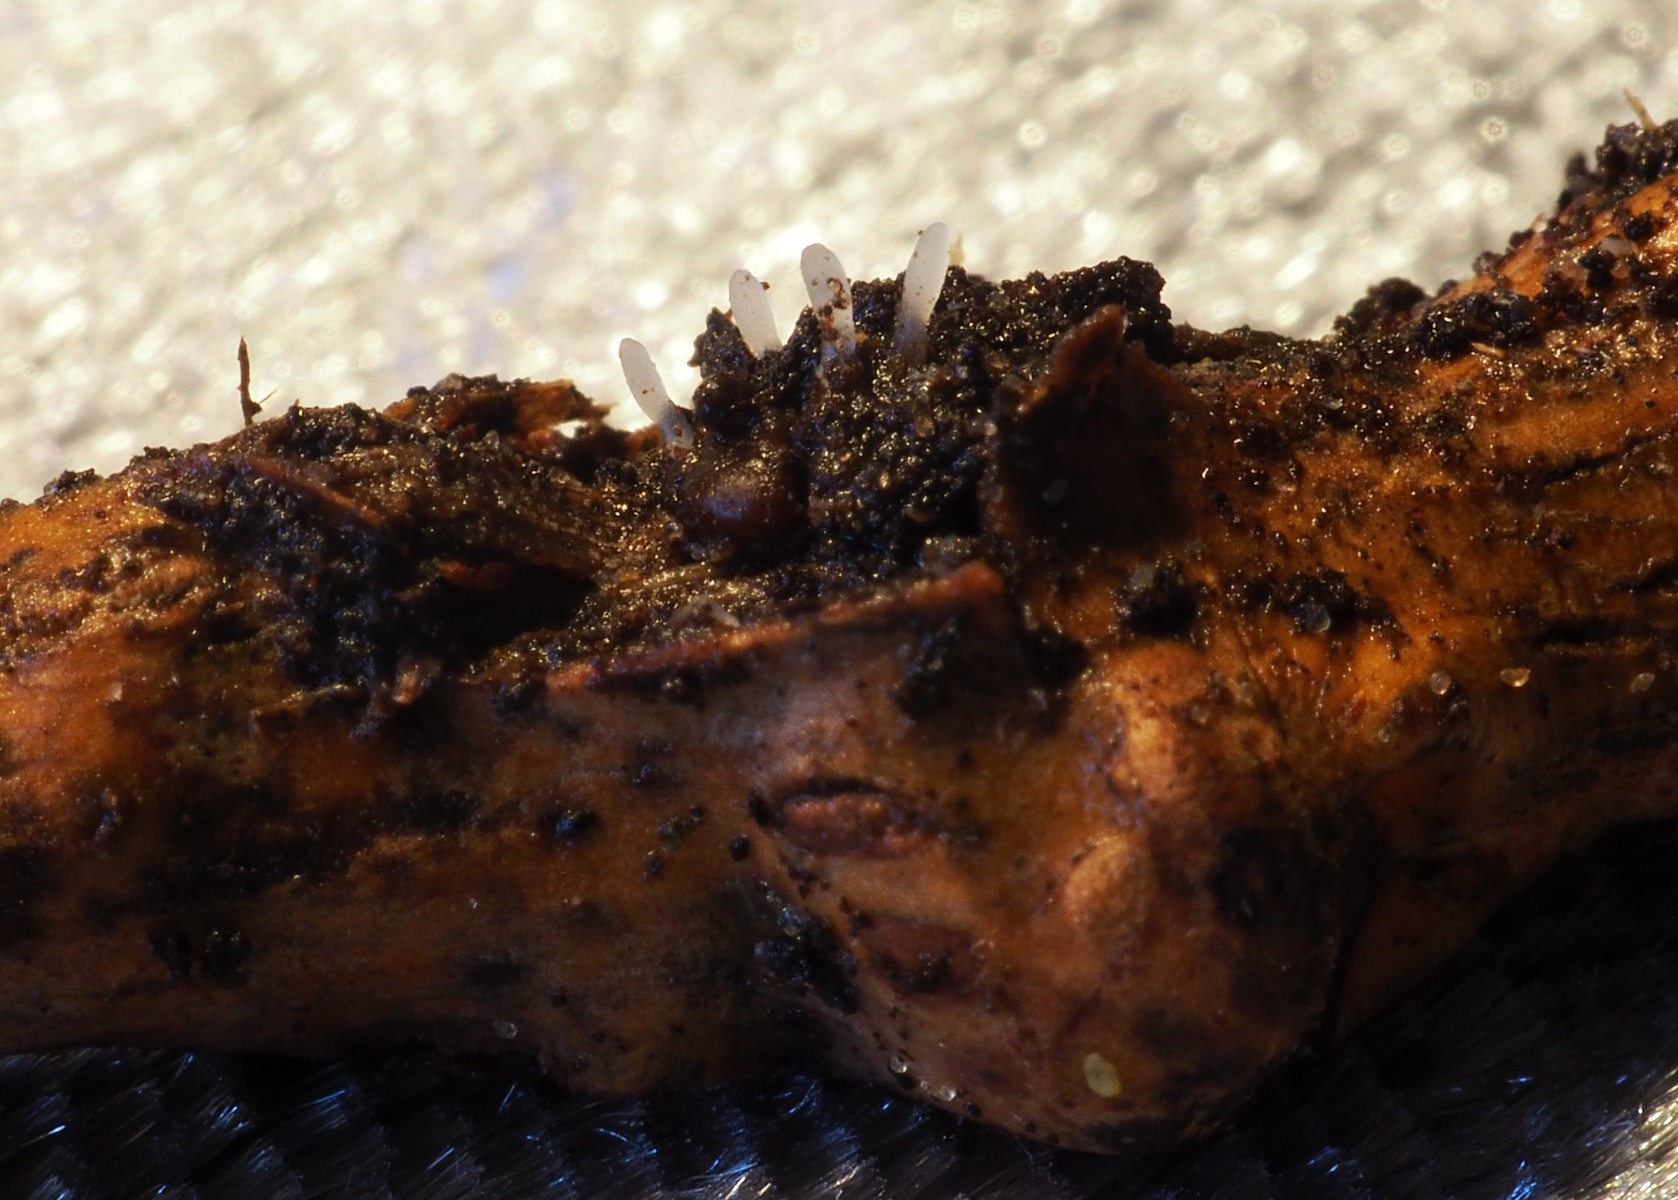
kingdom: Fungi
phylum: Basidiomycota
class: Agaricomycetes
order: Agaricales
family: Typhulaceae
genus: Typhula
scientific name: Typhula spathulata
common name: aske-trådkølle
